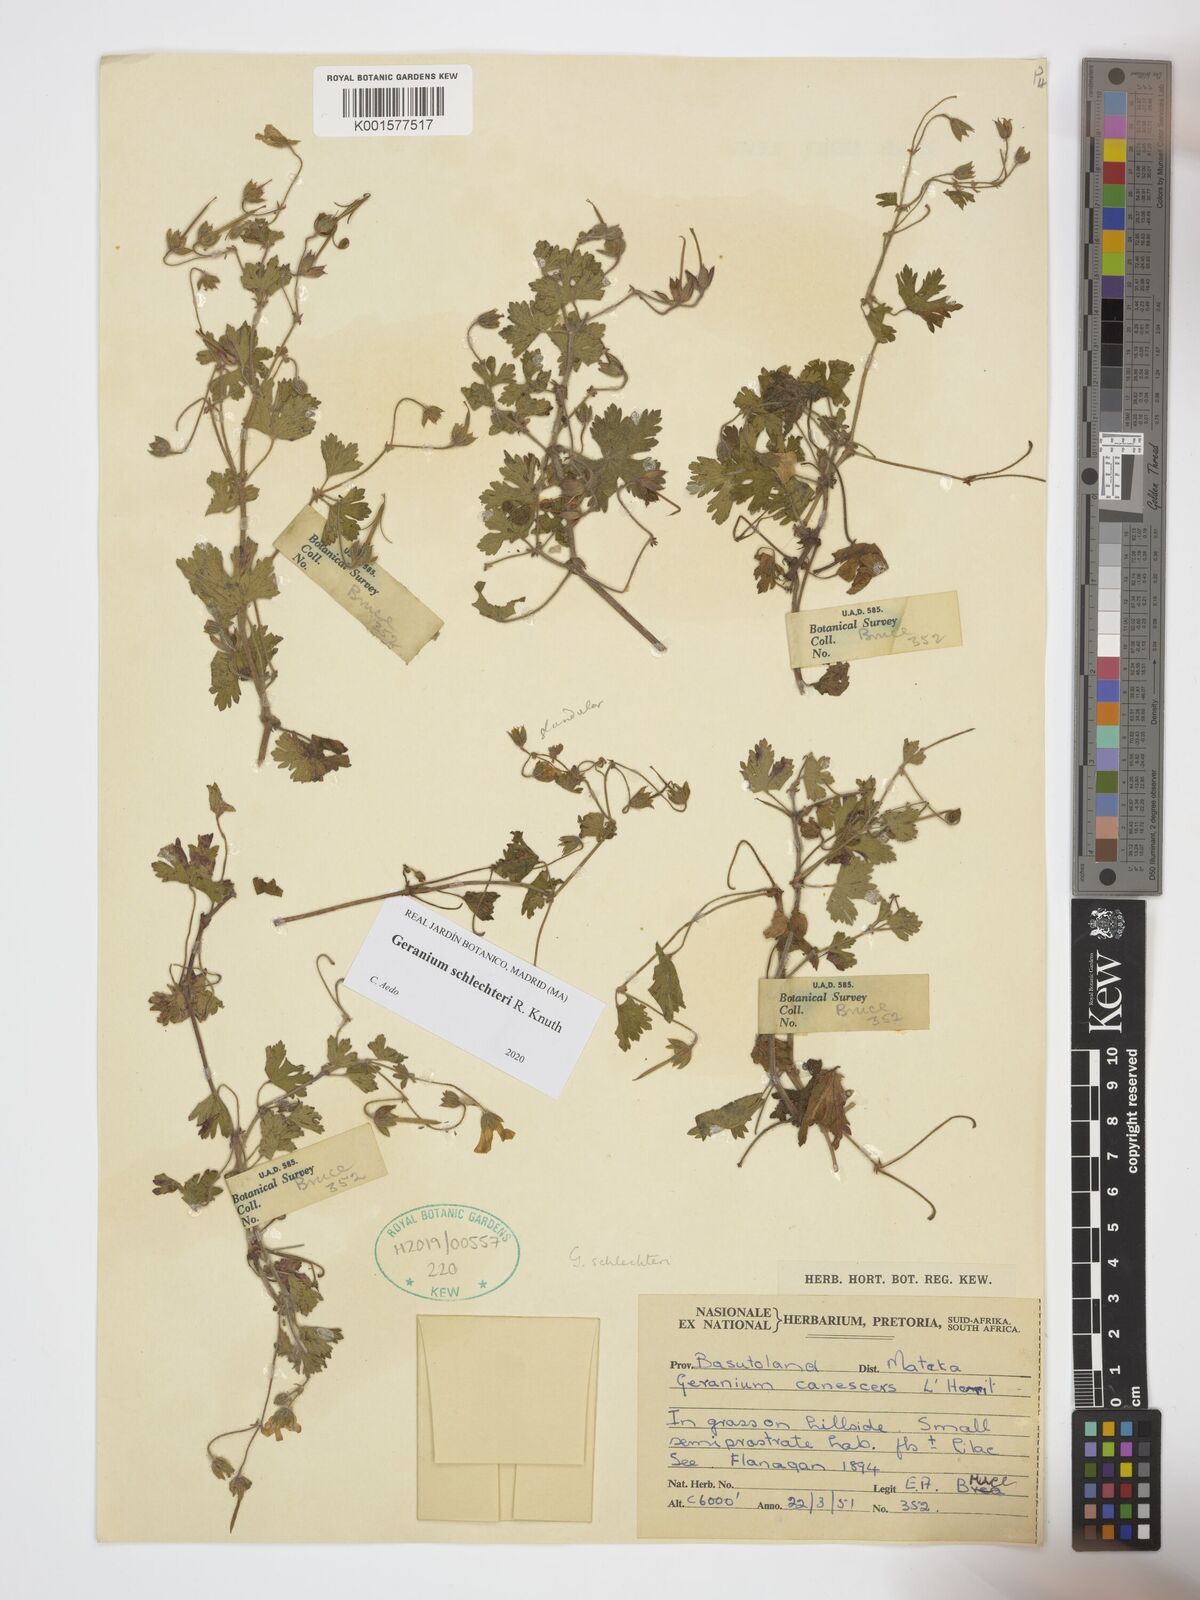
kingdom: Plantae
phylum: Tracheophyta
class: Magnoliopsida
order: Geraniales
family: Geraniaceae
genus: Geranium
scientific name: Geranium schlechteri
